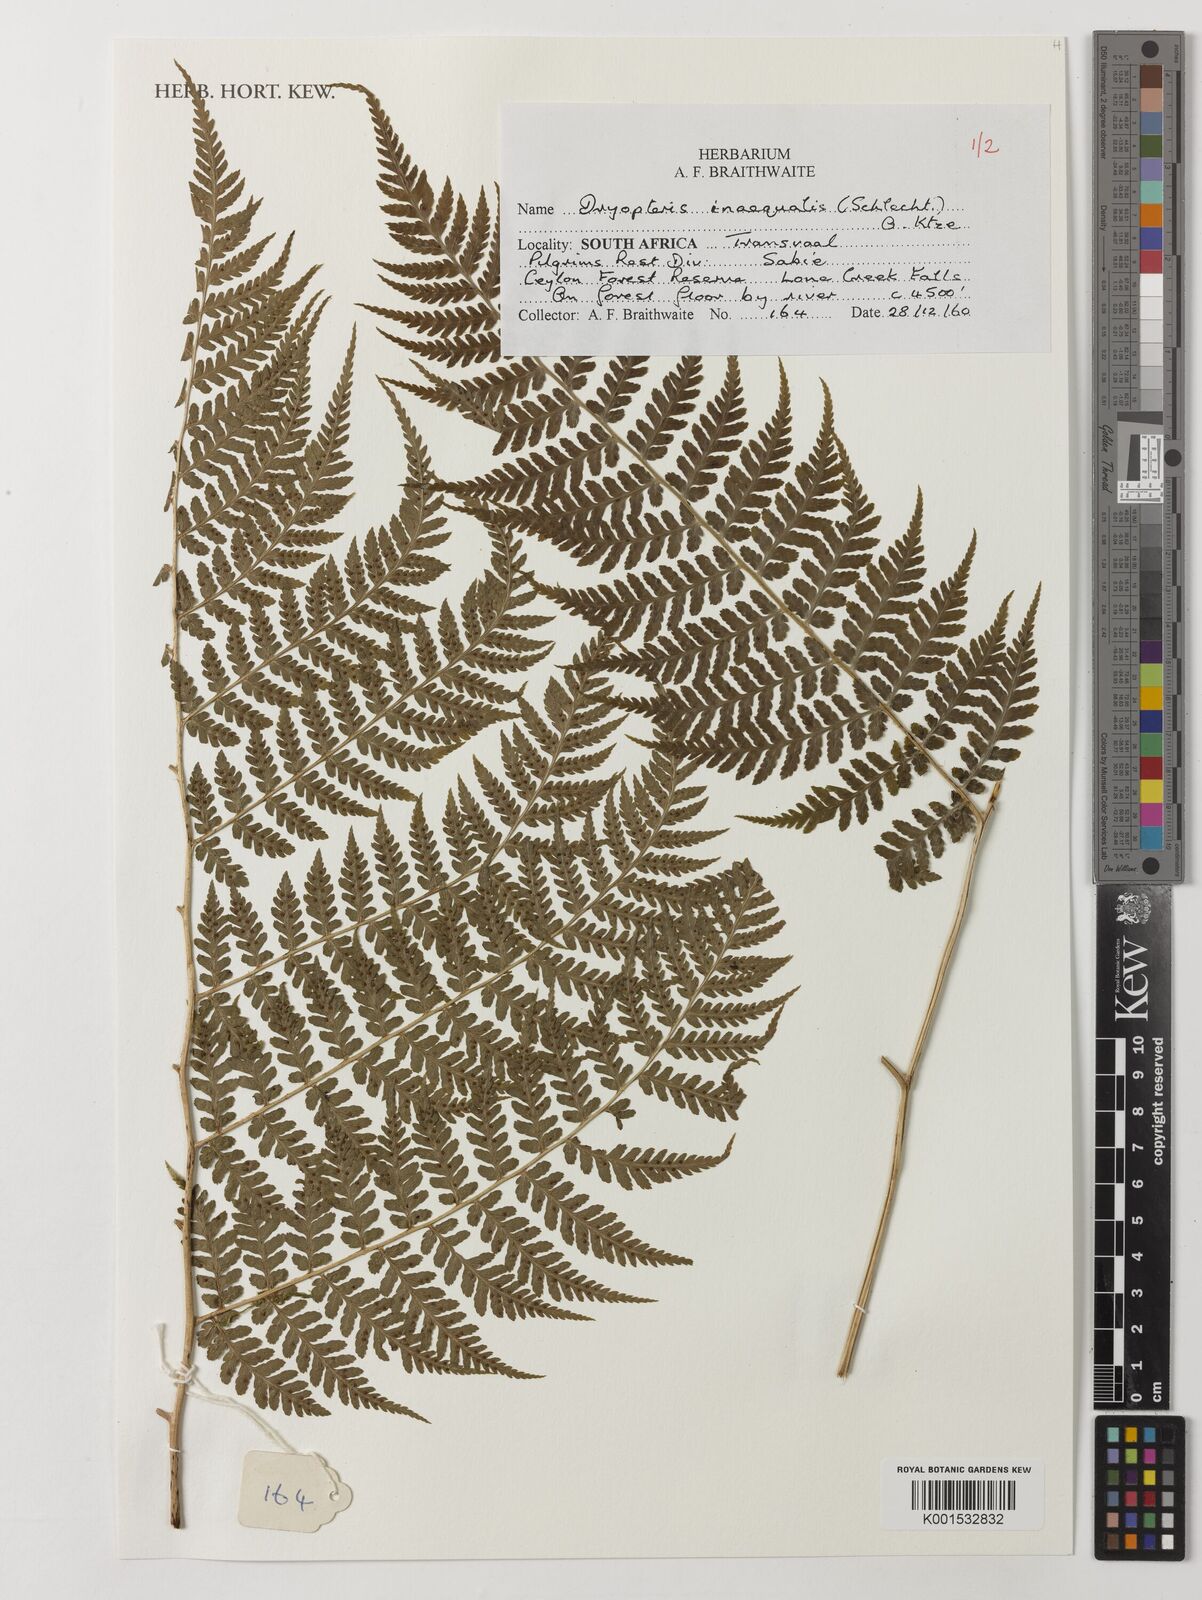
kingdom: Plantae
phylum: Tracheophyta
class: Polypodiopsida
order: Polypodiales
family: Dryopteridaceae
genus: Dryopteris
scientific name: Dryopteris inaequalis
